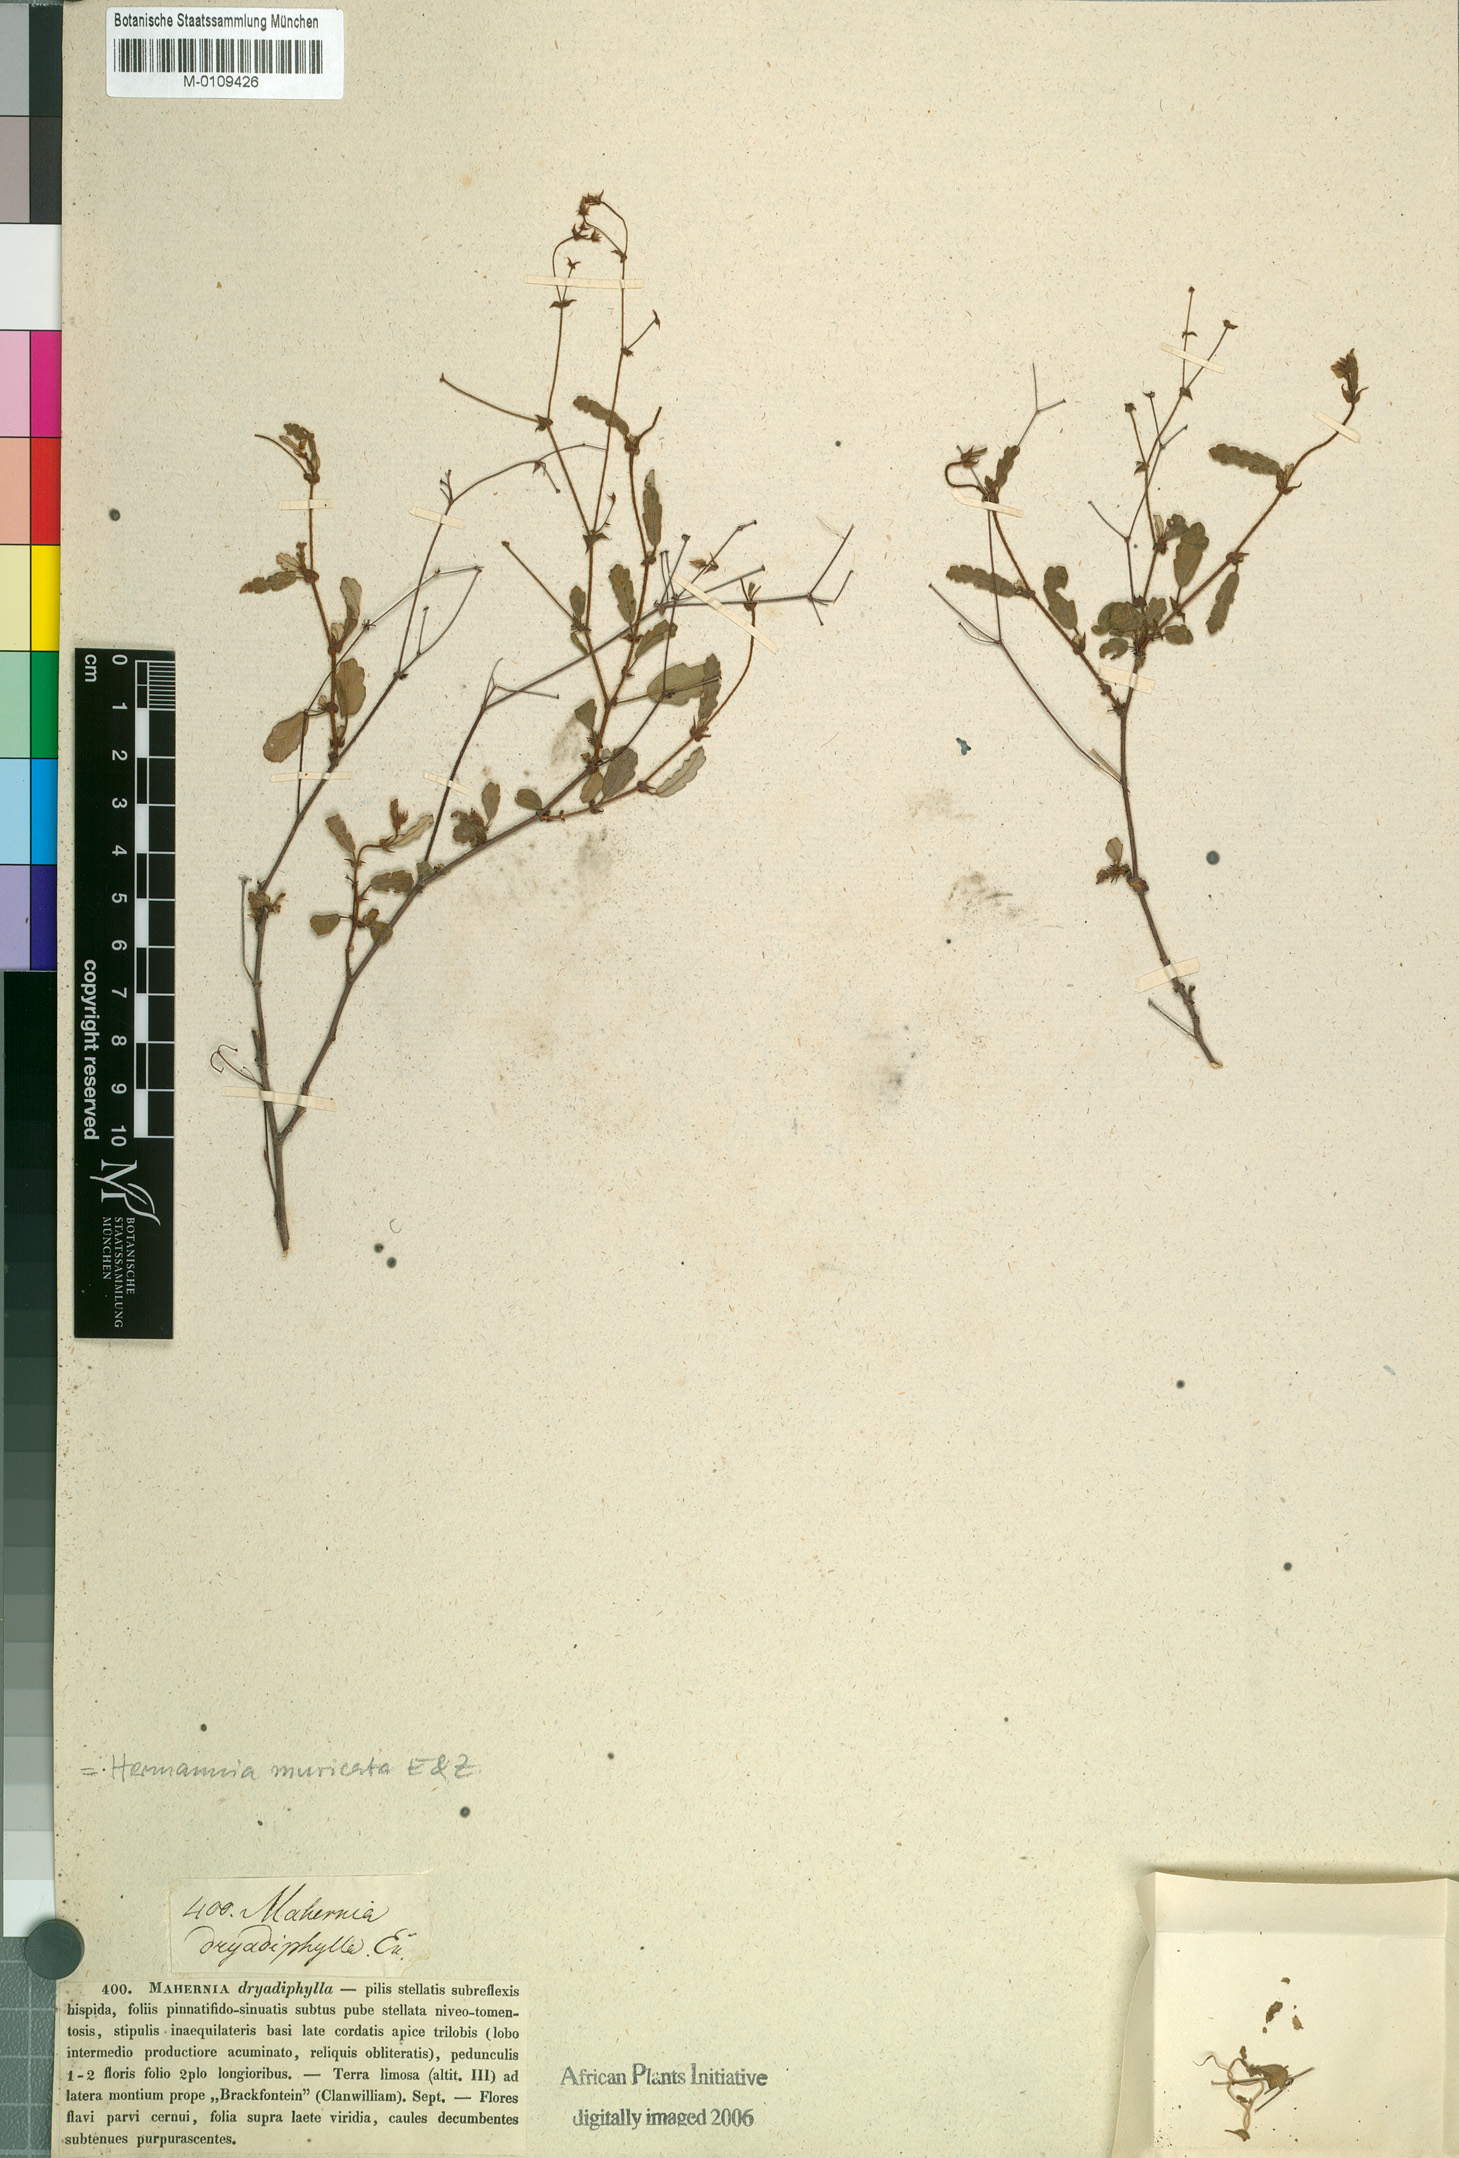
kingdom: Plantae
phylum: Tracheophyta
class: Magnoliopsida
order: Malvales
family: Malvaceae
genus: Hermannia
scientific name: Hermannia muricata
